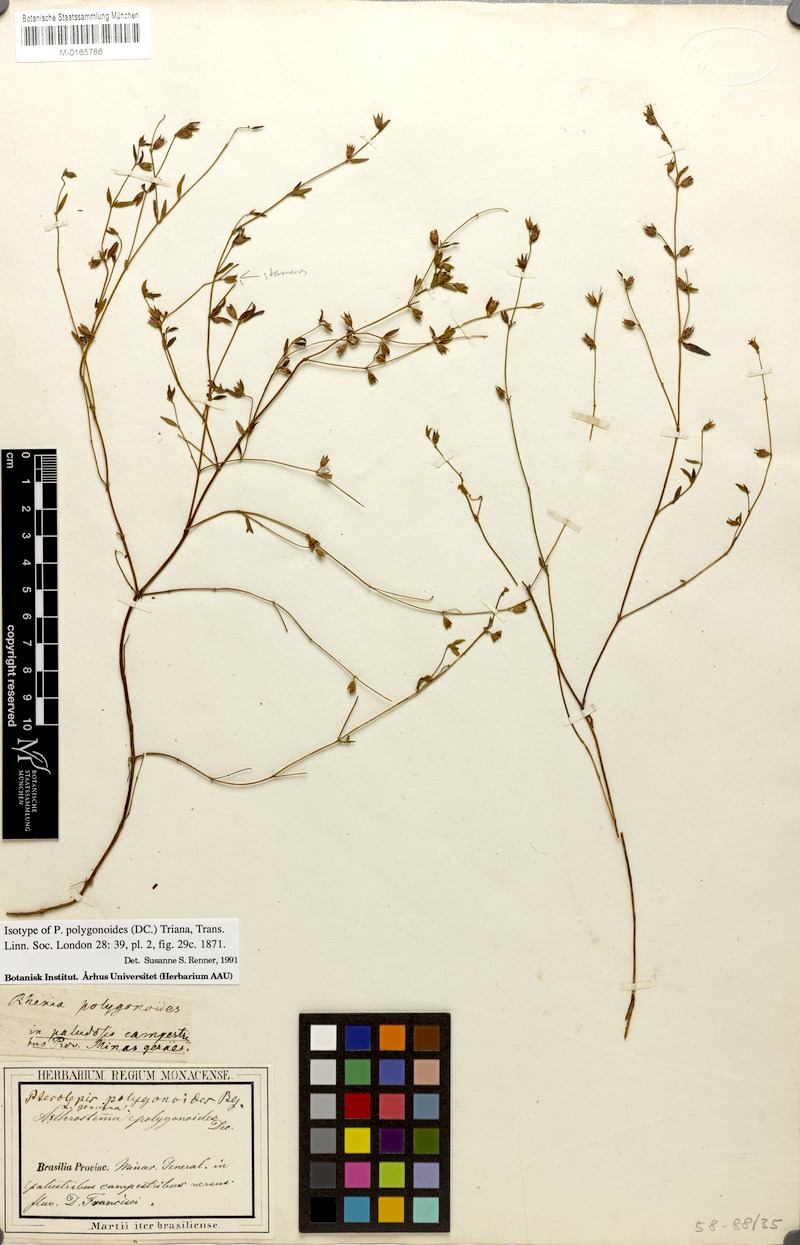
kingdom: Plantae
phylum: Tracheophyta
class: Magnoliopsida
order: Myrtales
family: Melastomataceae
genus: Pterolepis
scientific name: Pterolepis polygonoides
